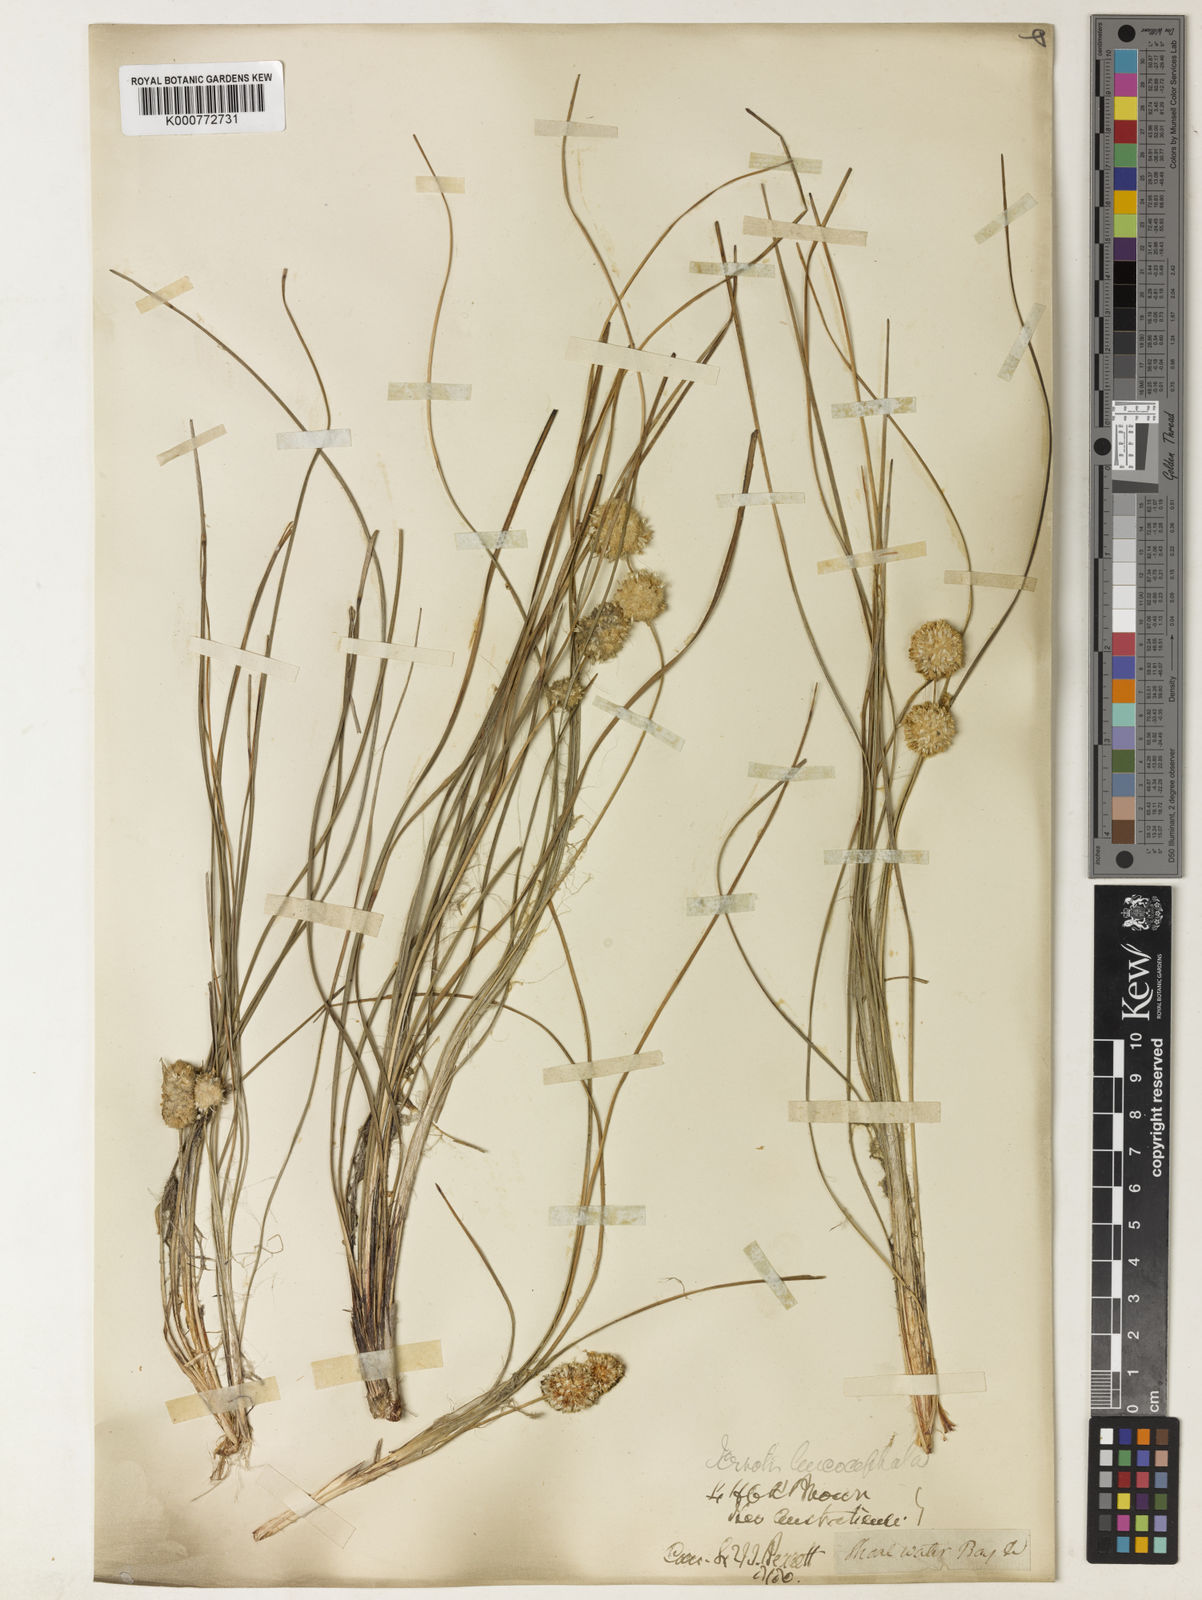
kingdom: Plantae
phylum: Tracheophyta
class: Liliopsida
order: Asparagales
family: Asparagaceae
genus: Lomandra
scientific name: Lomandra leucocephala
